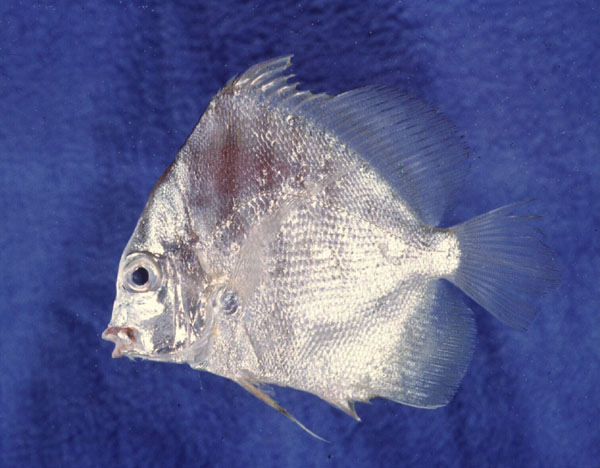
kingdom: Animalia
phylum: Chordata
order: Perciformes
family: Drepaneidae
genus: Drepane
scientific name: Drepane longimana
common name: Concertina fish
